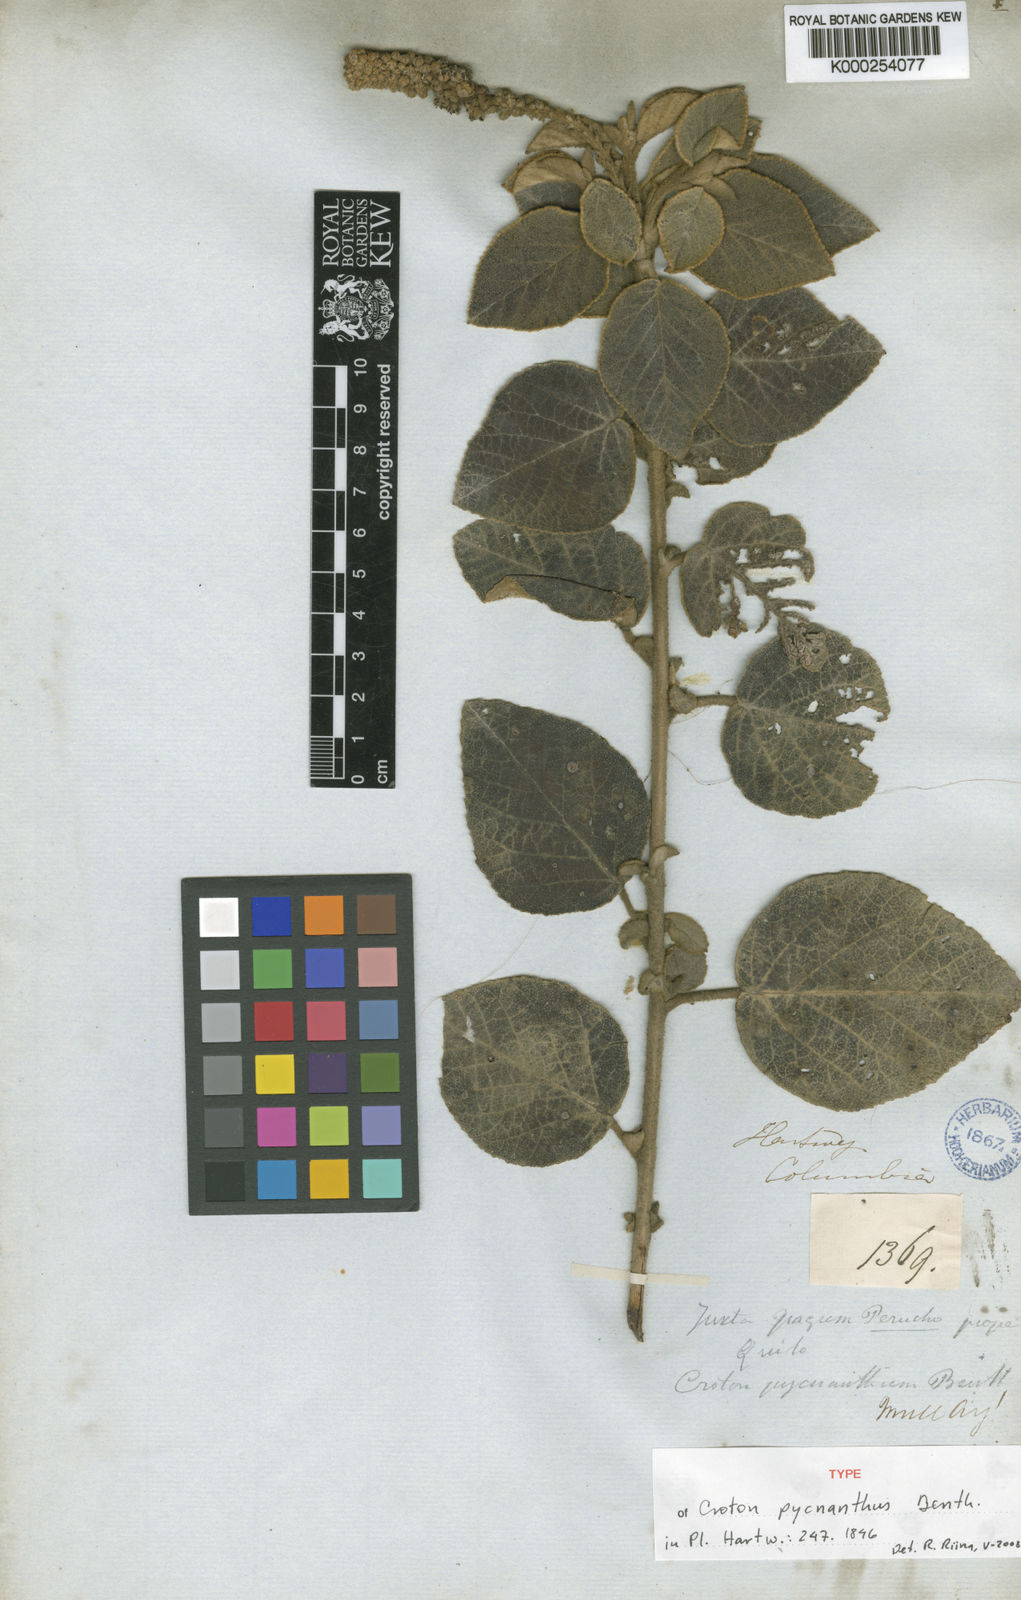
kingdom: Plantae
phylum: Tracheophyta
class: Magnoliopsida
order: Malpighiales
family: Euphorbiaceae
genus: Croton
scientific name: Croton pycnanthus
